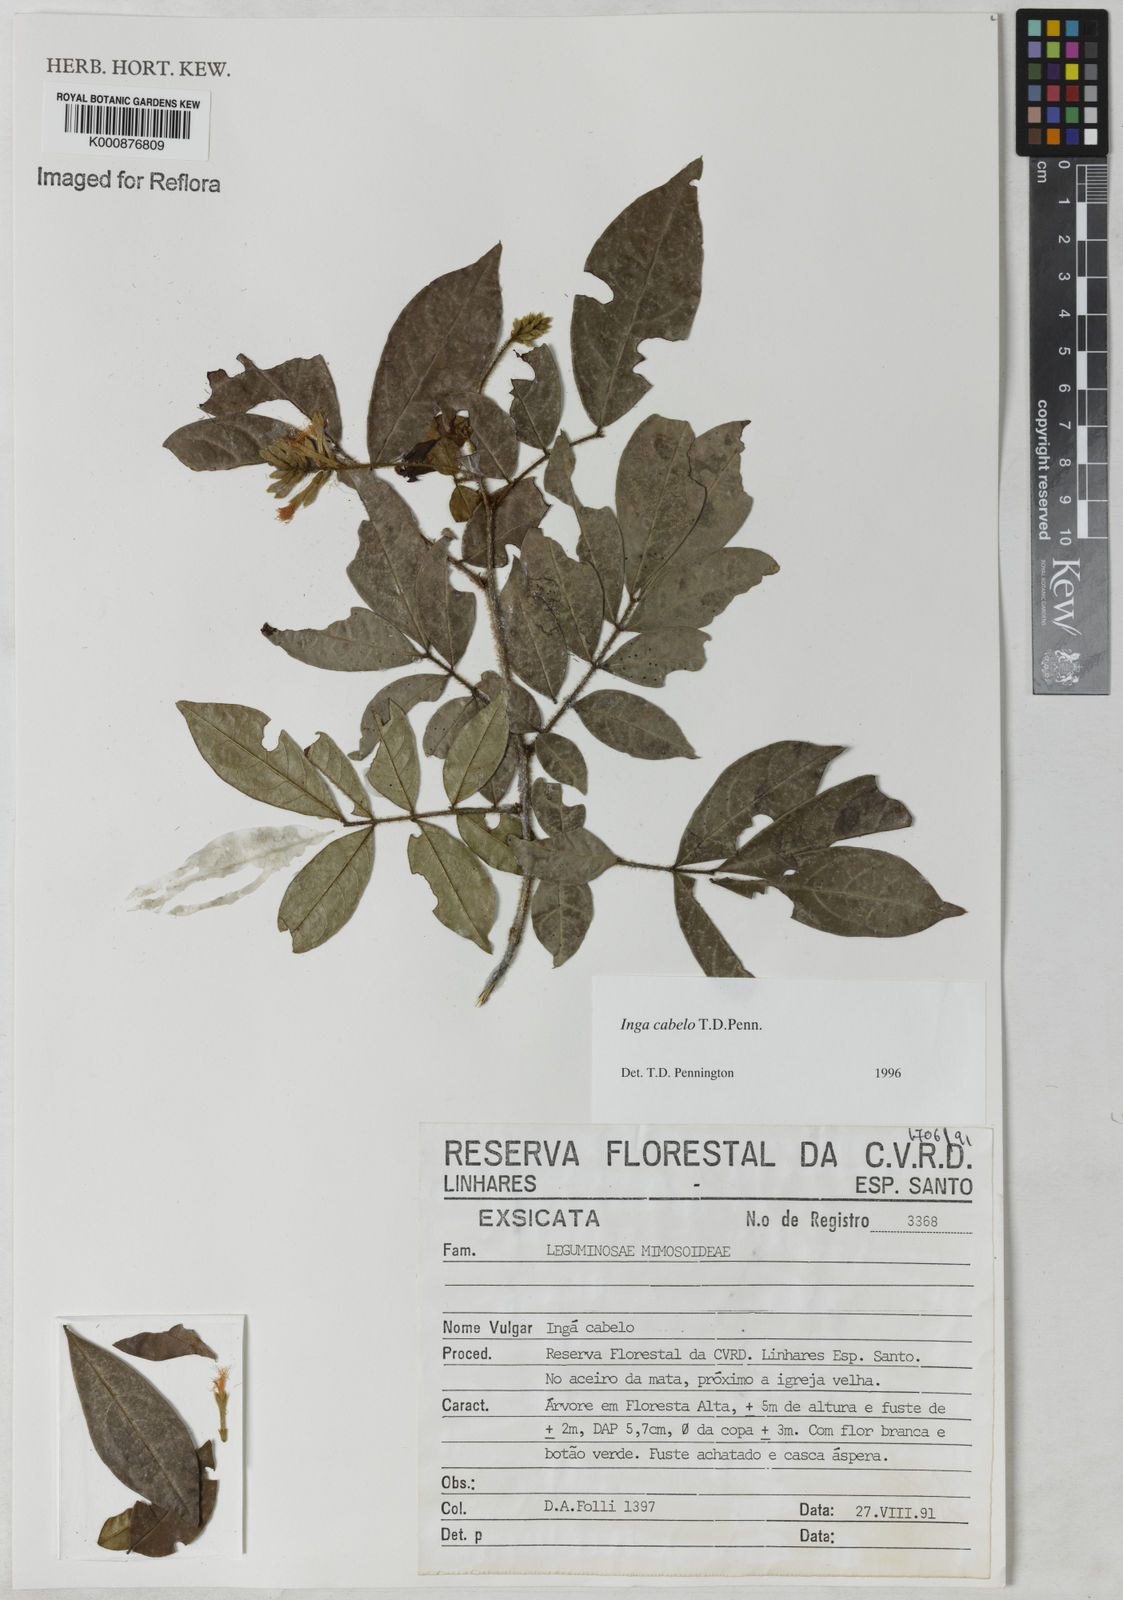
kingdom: Plantae
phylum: Tracheophyta
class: Magnoliopsida
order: Fabales
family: Fabaceae
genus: Inga
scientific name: Inga cabelo
